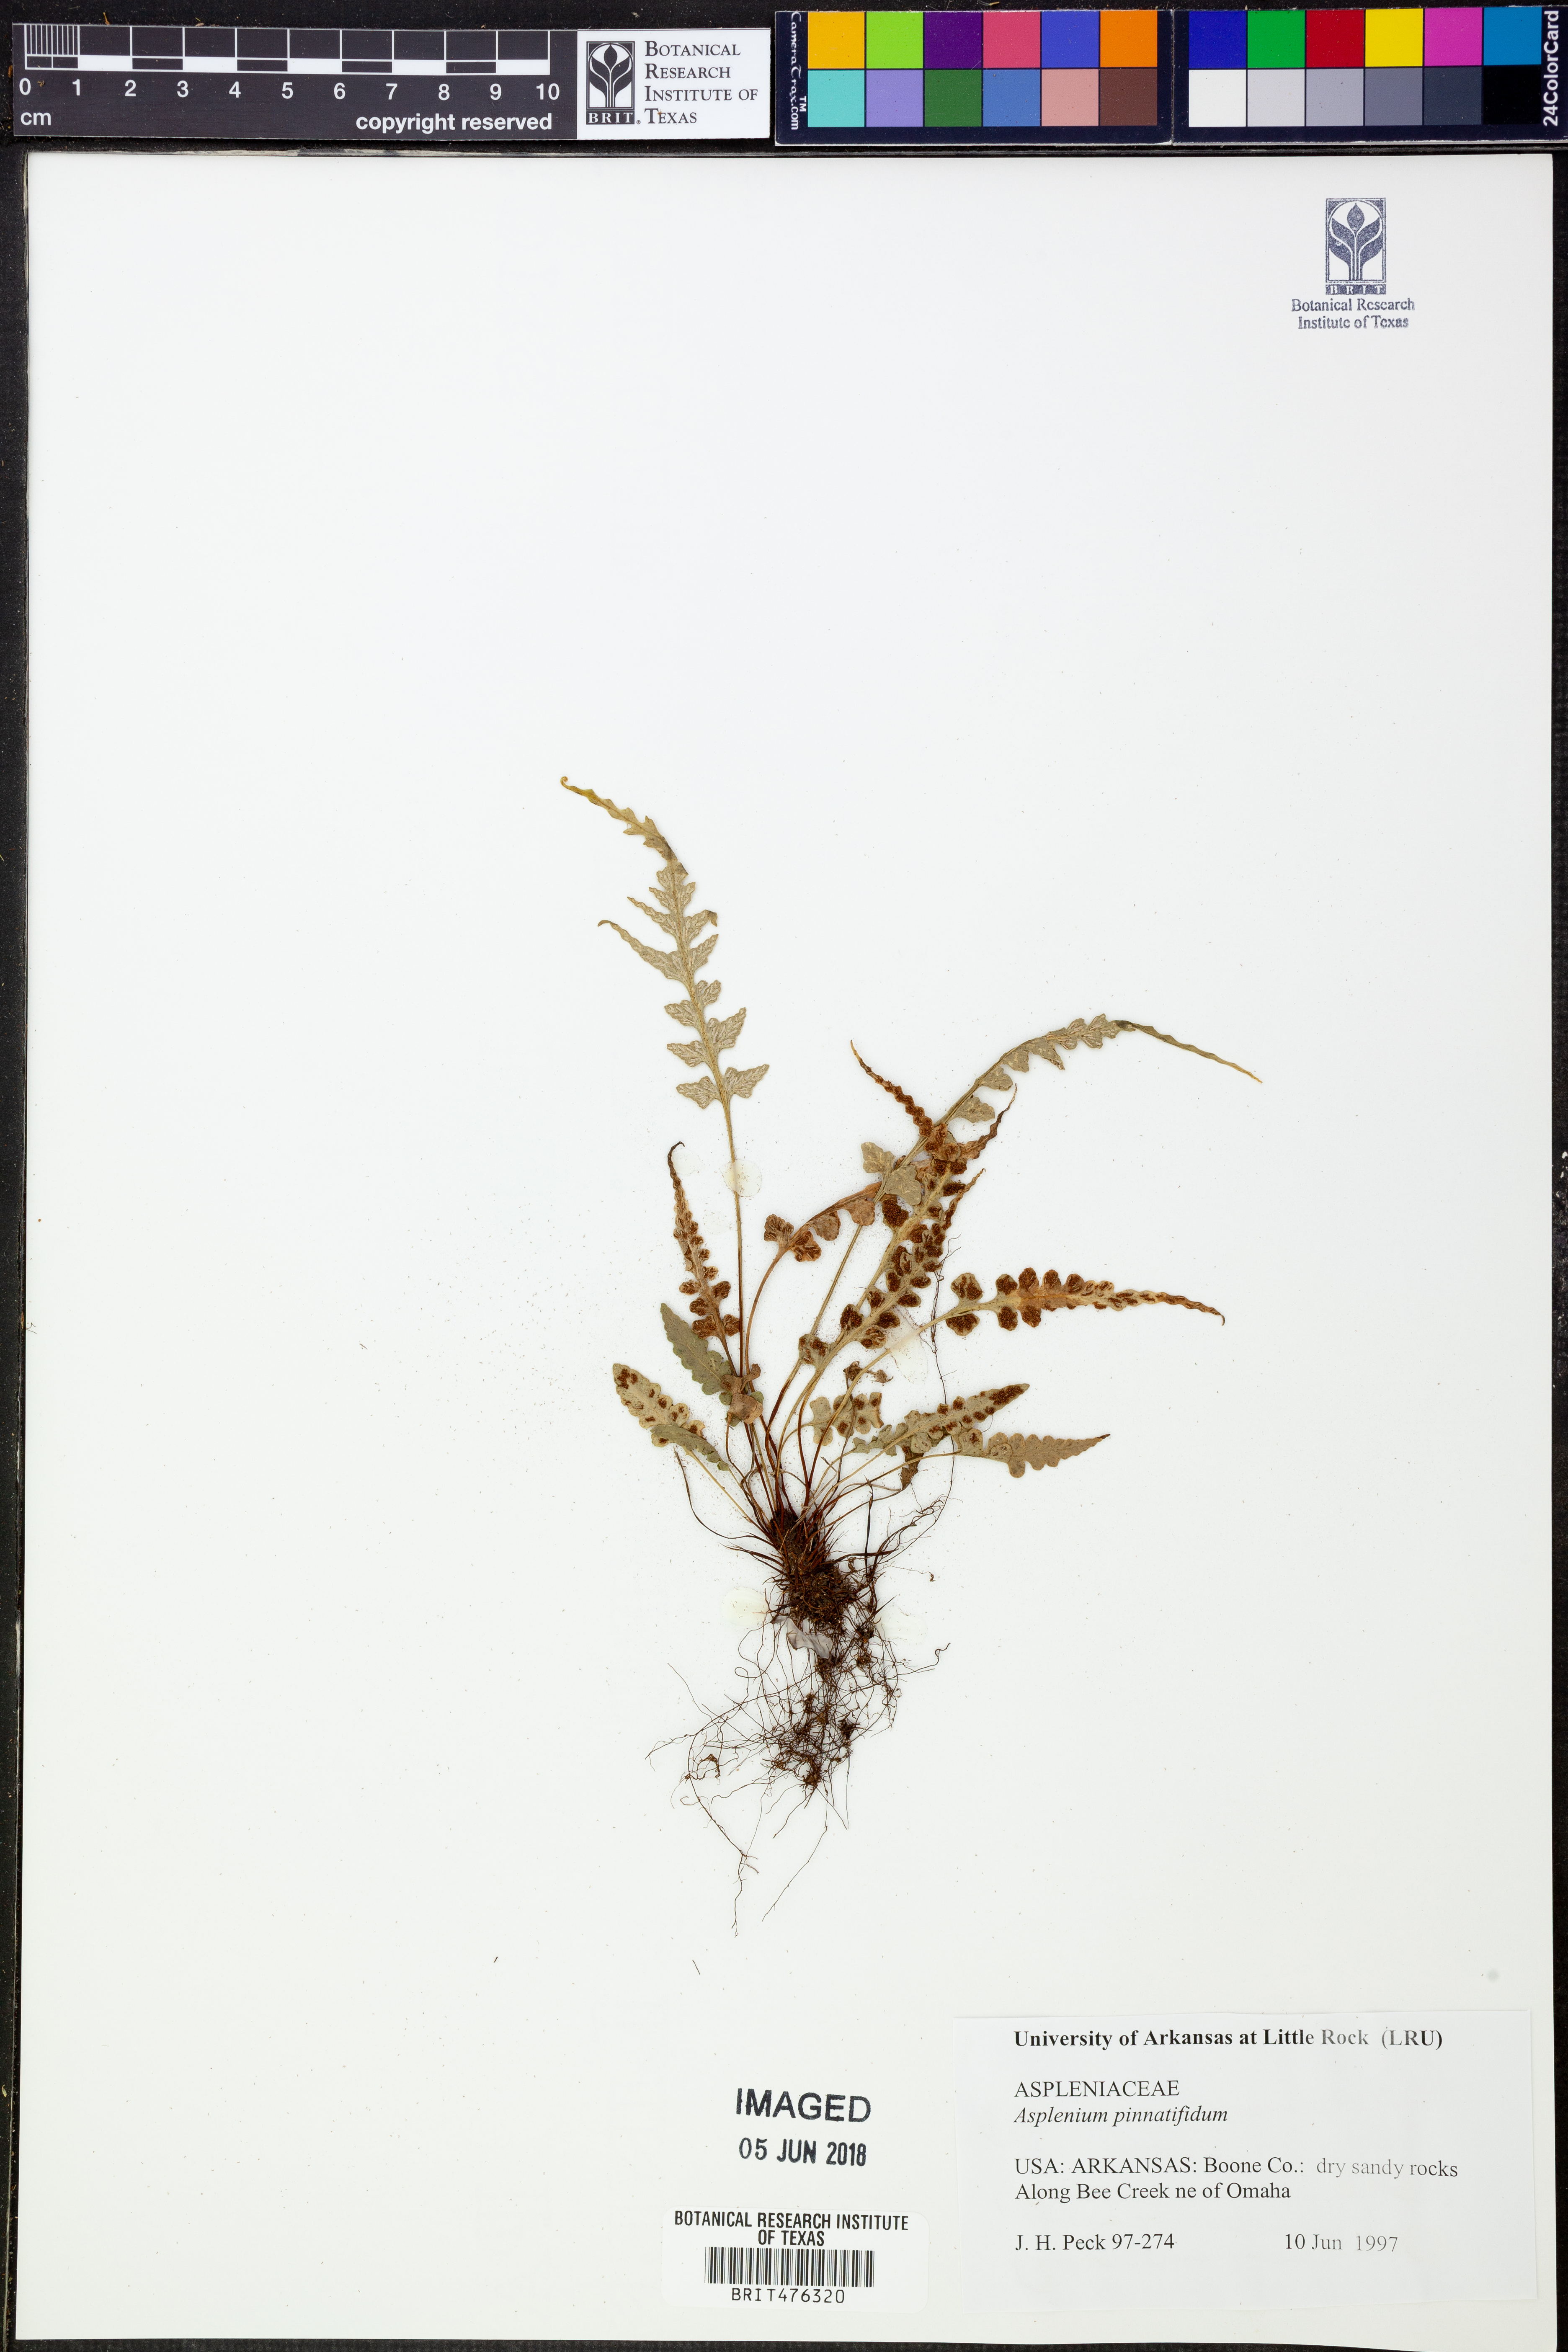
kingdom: Plantae
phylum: Tracheophyta
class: Polypodiopsida
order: Polypodiales
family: Aspleniaceae
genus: Asplenium
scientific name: Asplenium pinnatifidum
